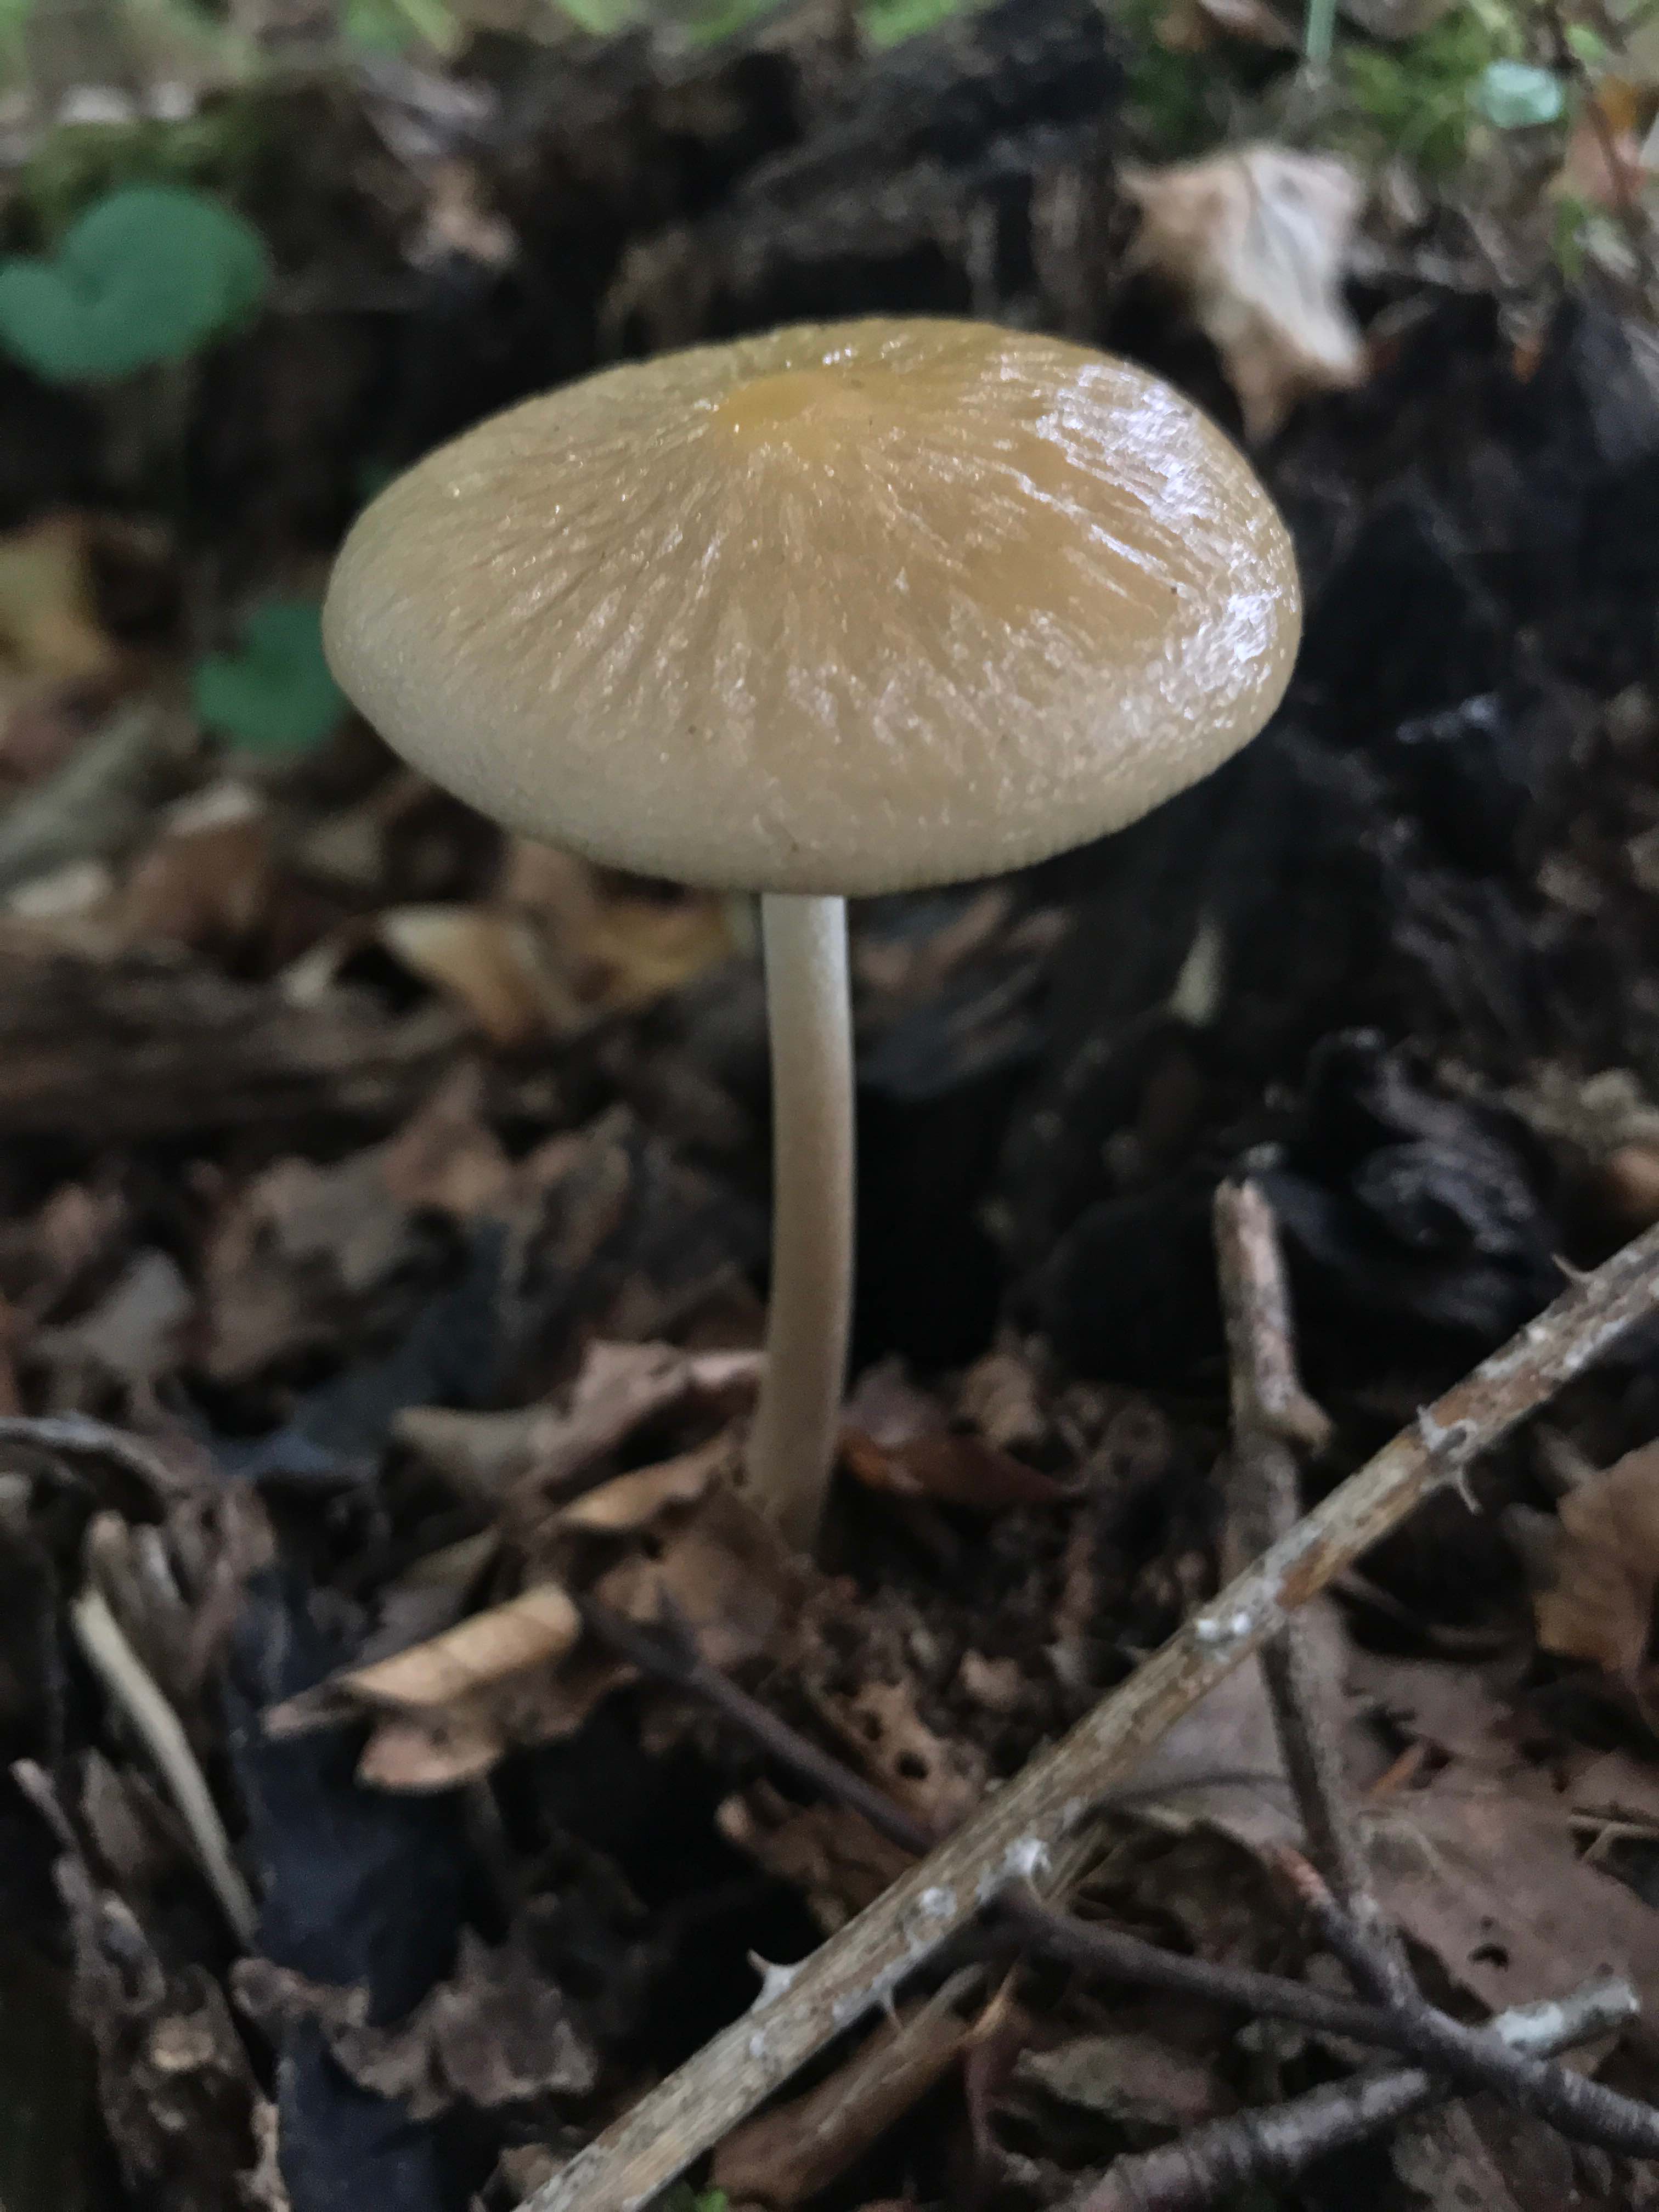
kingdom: Fungi
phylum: Basidiomycota
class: Agaricomycetes
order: Agaricales
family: Physalacriaceae
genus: Hymenopellis
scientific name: Hymenopellis radicata
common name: almindelig pælerodshat
